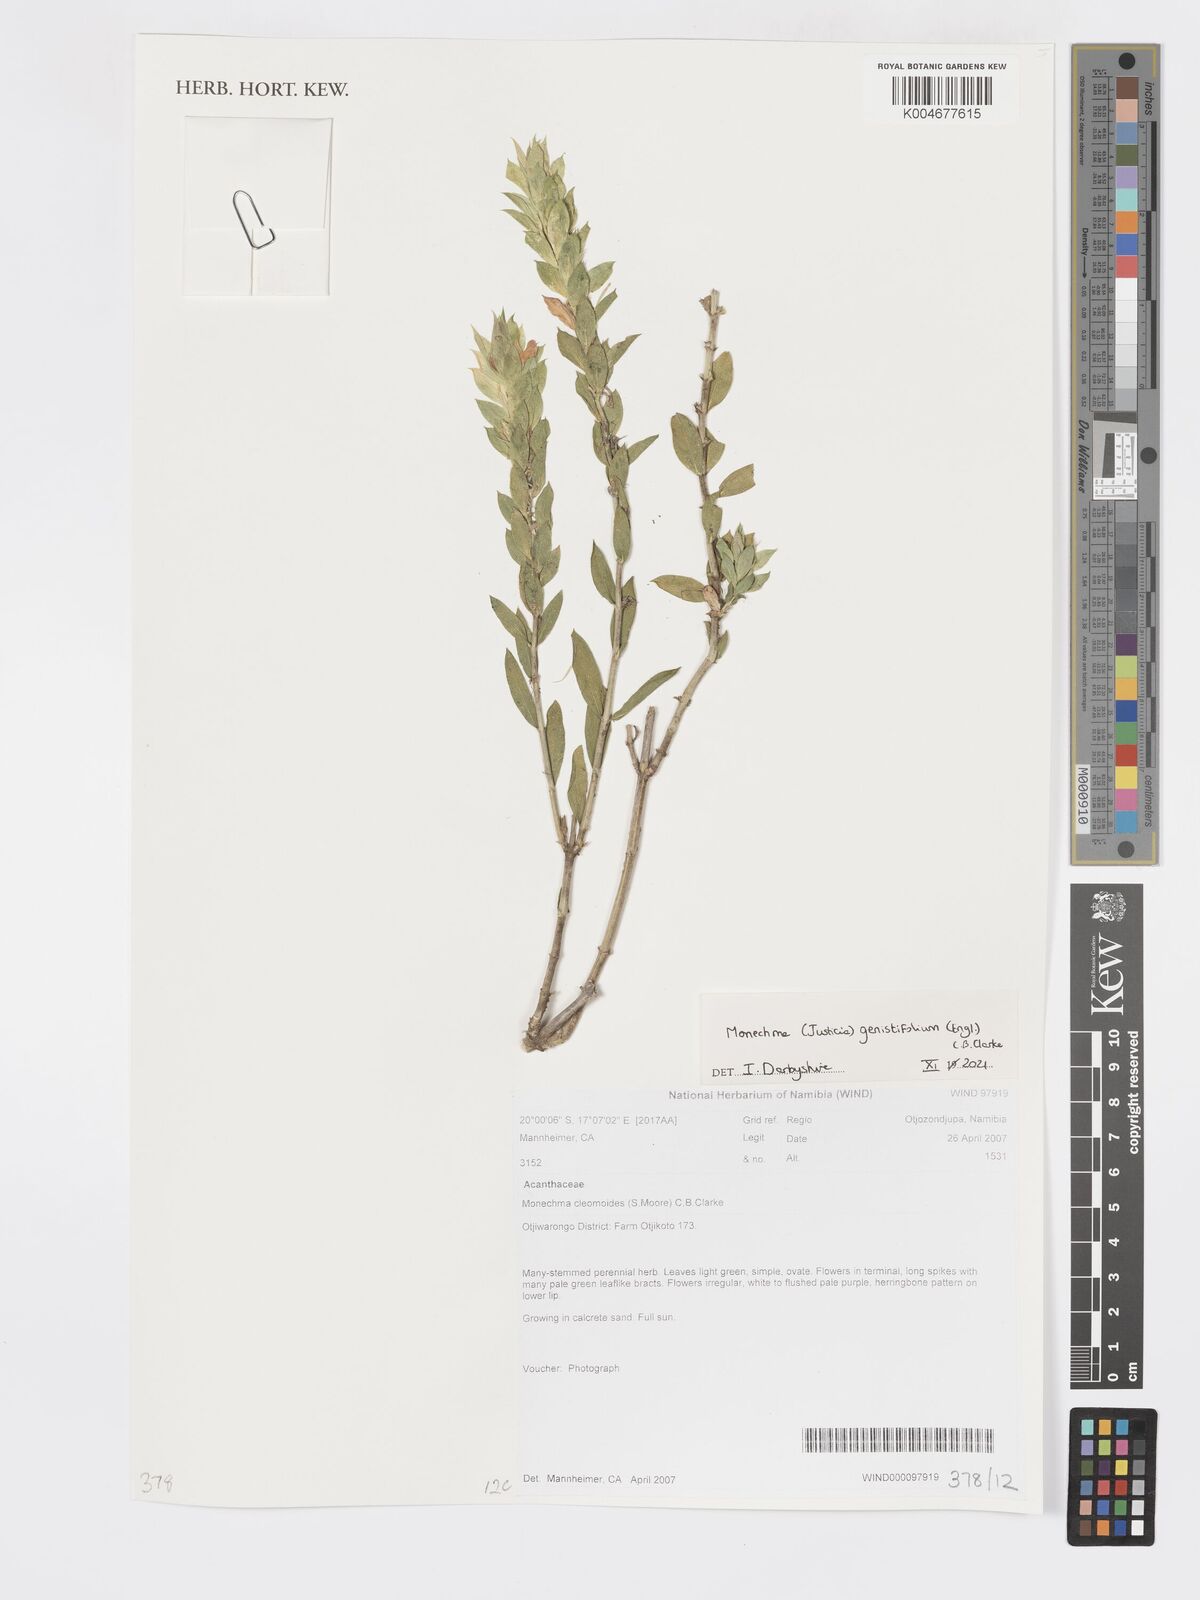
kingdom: Plantae
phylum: Tracheophyta
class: Magnoliopsida
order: Lamiales
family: Acanthaceae
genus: Pogonospermum
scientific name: Pogonospermum
